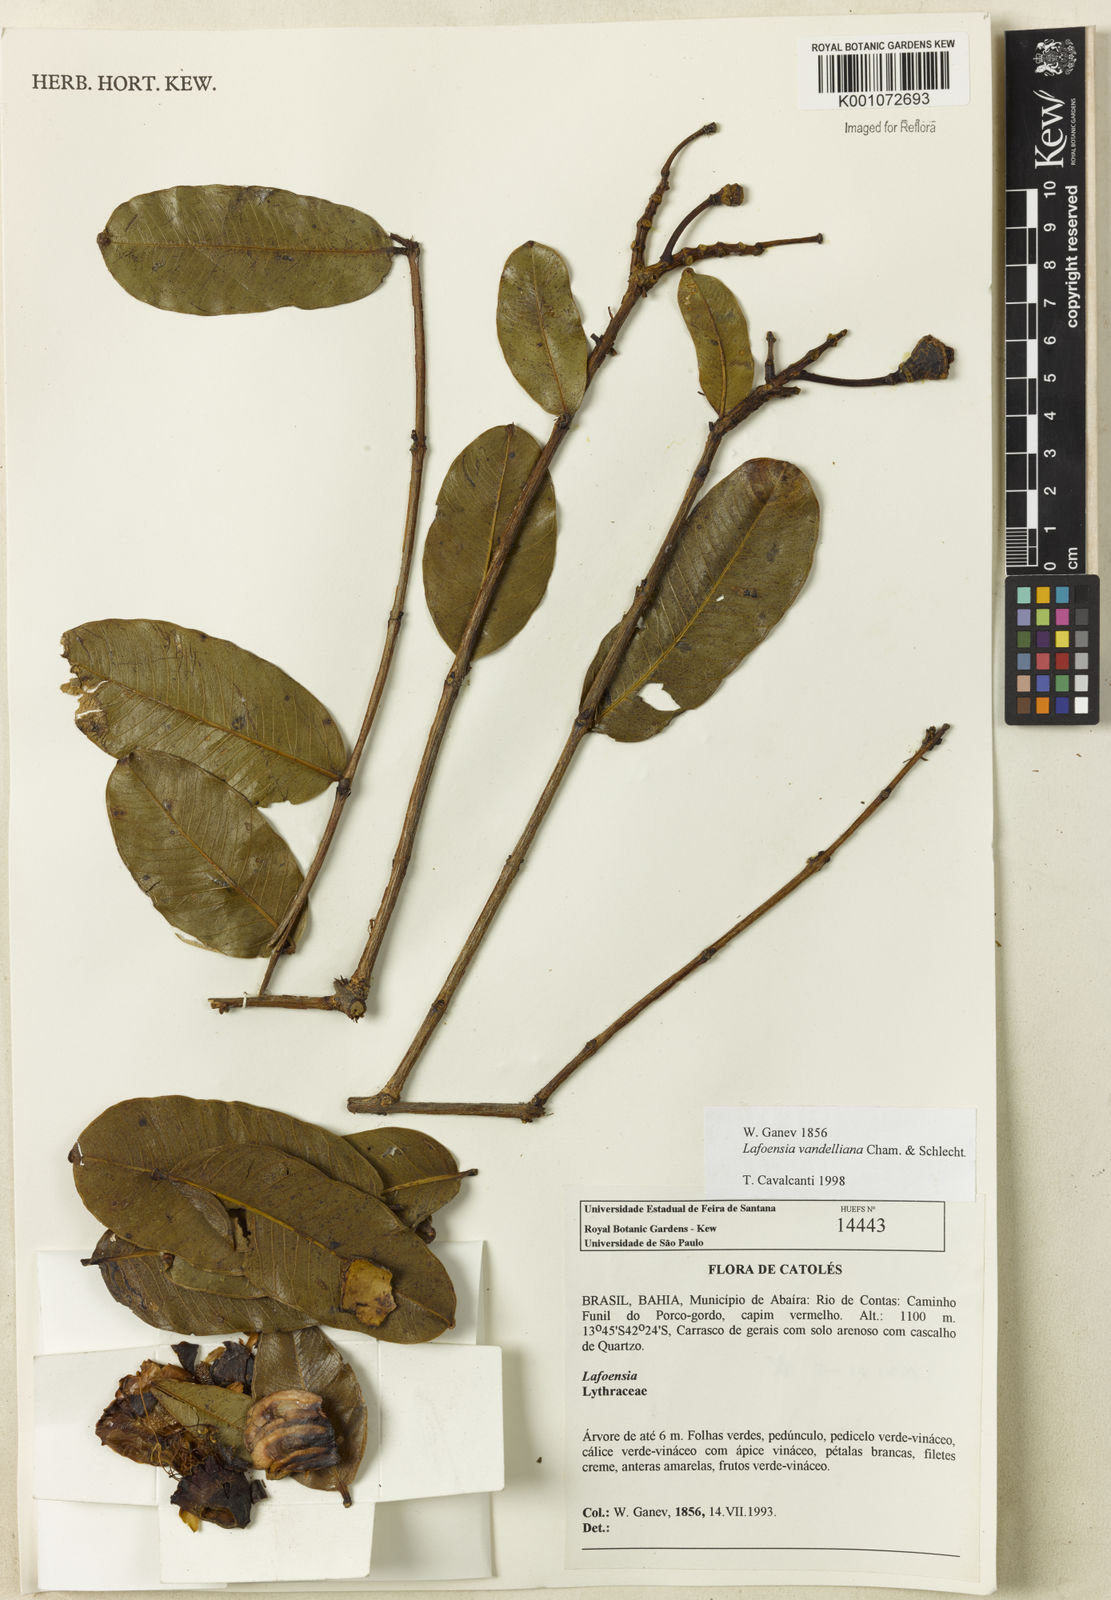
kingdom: Plantae
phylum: Tracheophyta
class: Magnoliopsida
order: Myrtales
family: Lythraceae
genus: Lafoensia
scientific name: Lafoensia vandelliana
